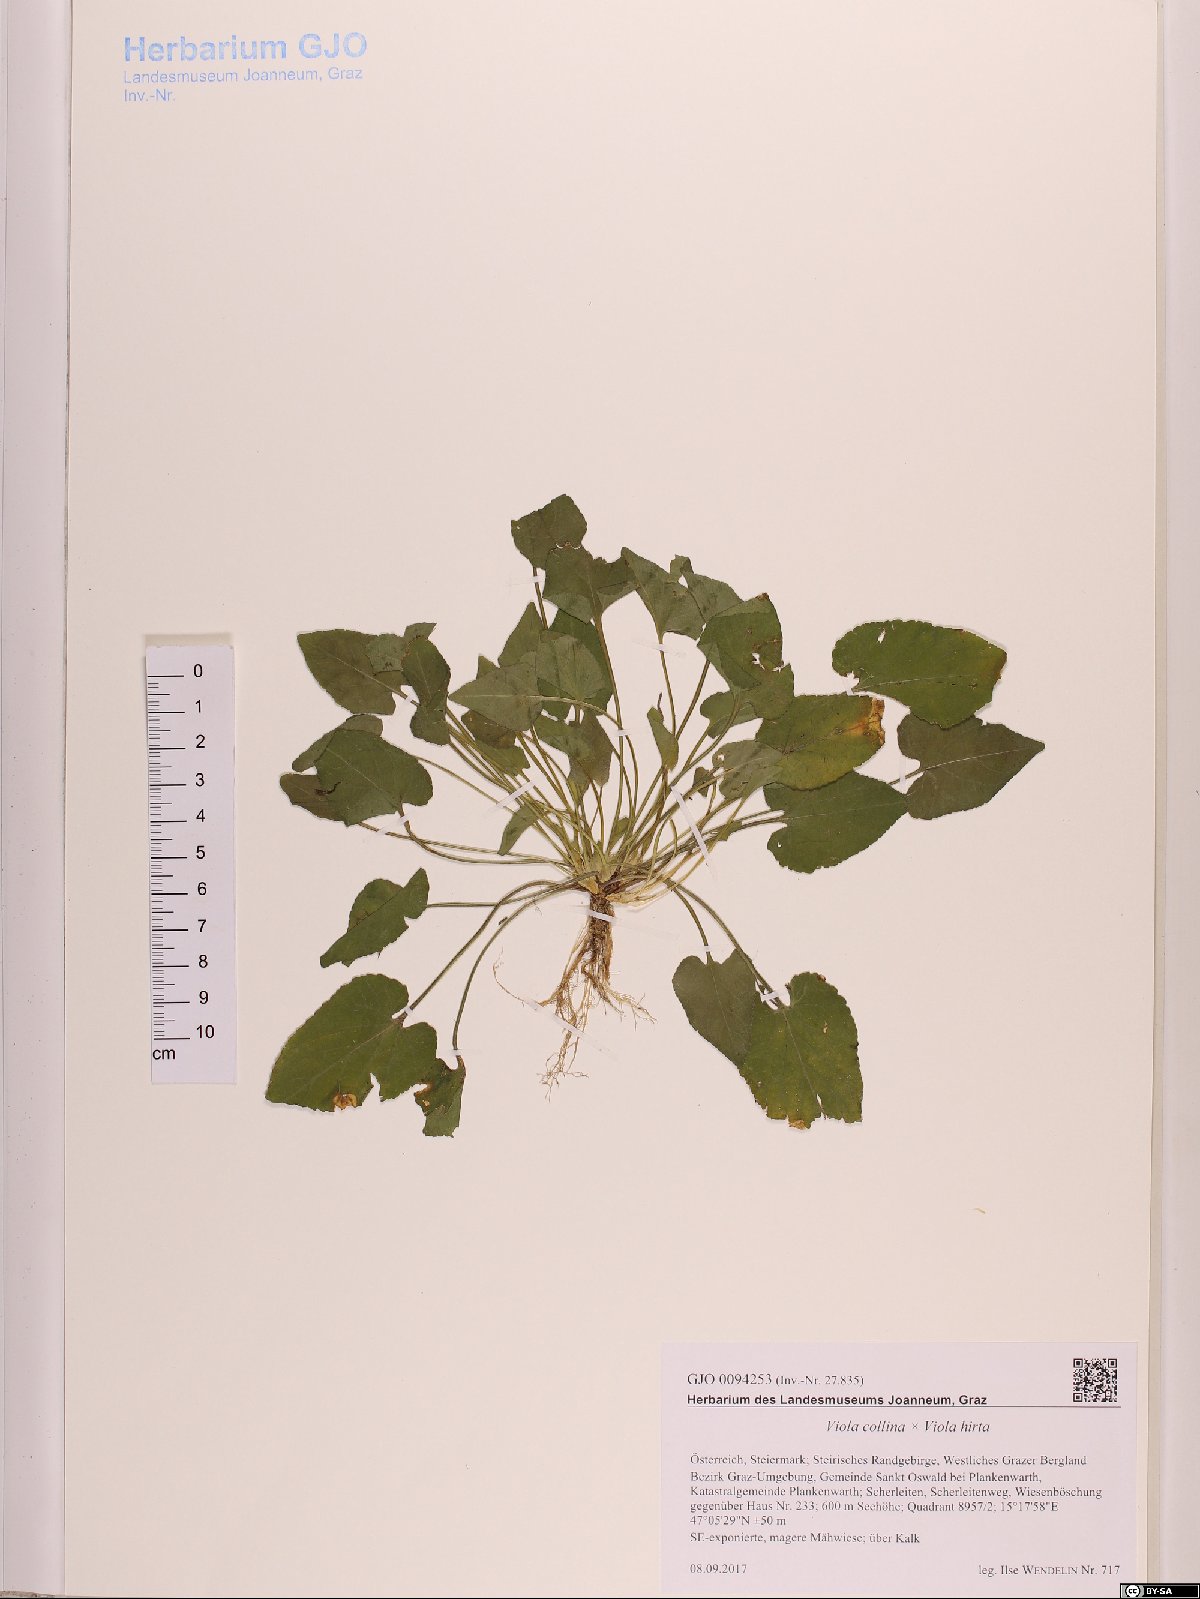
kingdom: Plantae
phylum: Tracheophyta
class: Magnoliopsida
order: Malpighiales
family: Violaceae
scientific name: Violaceae
